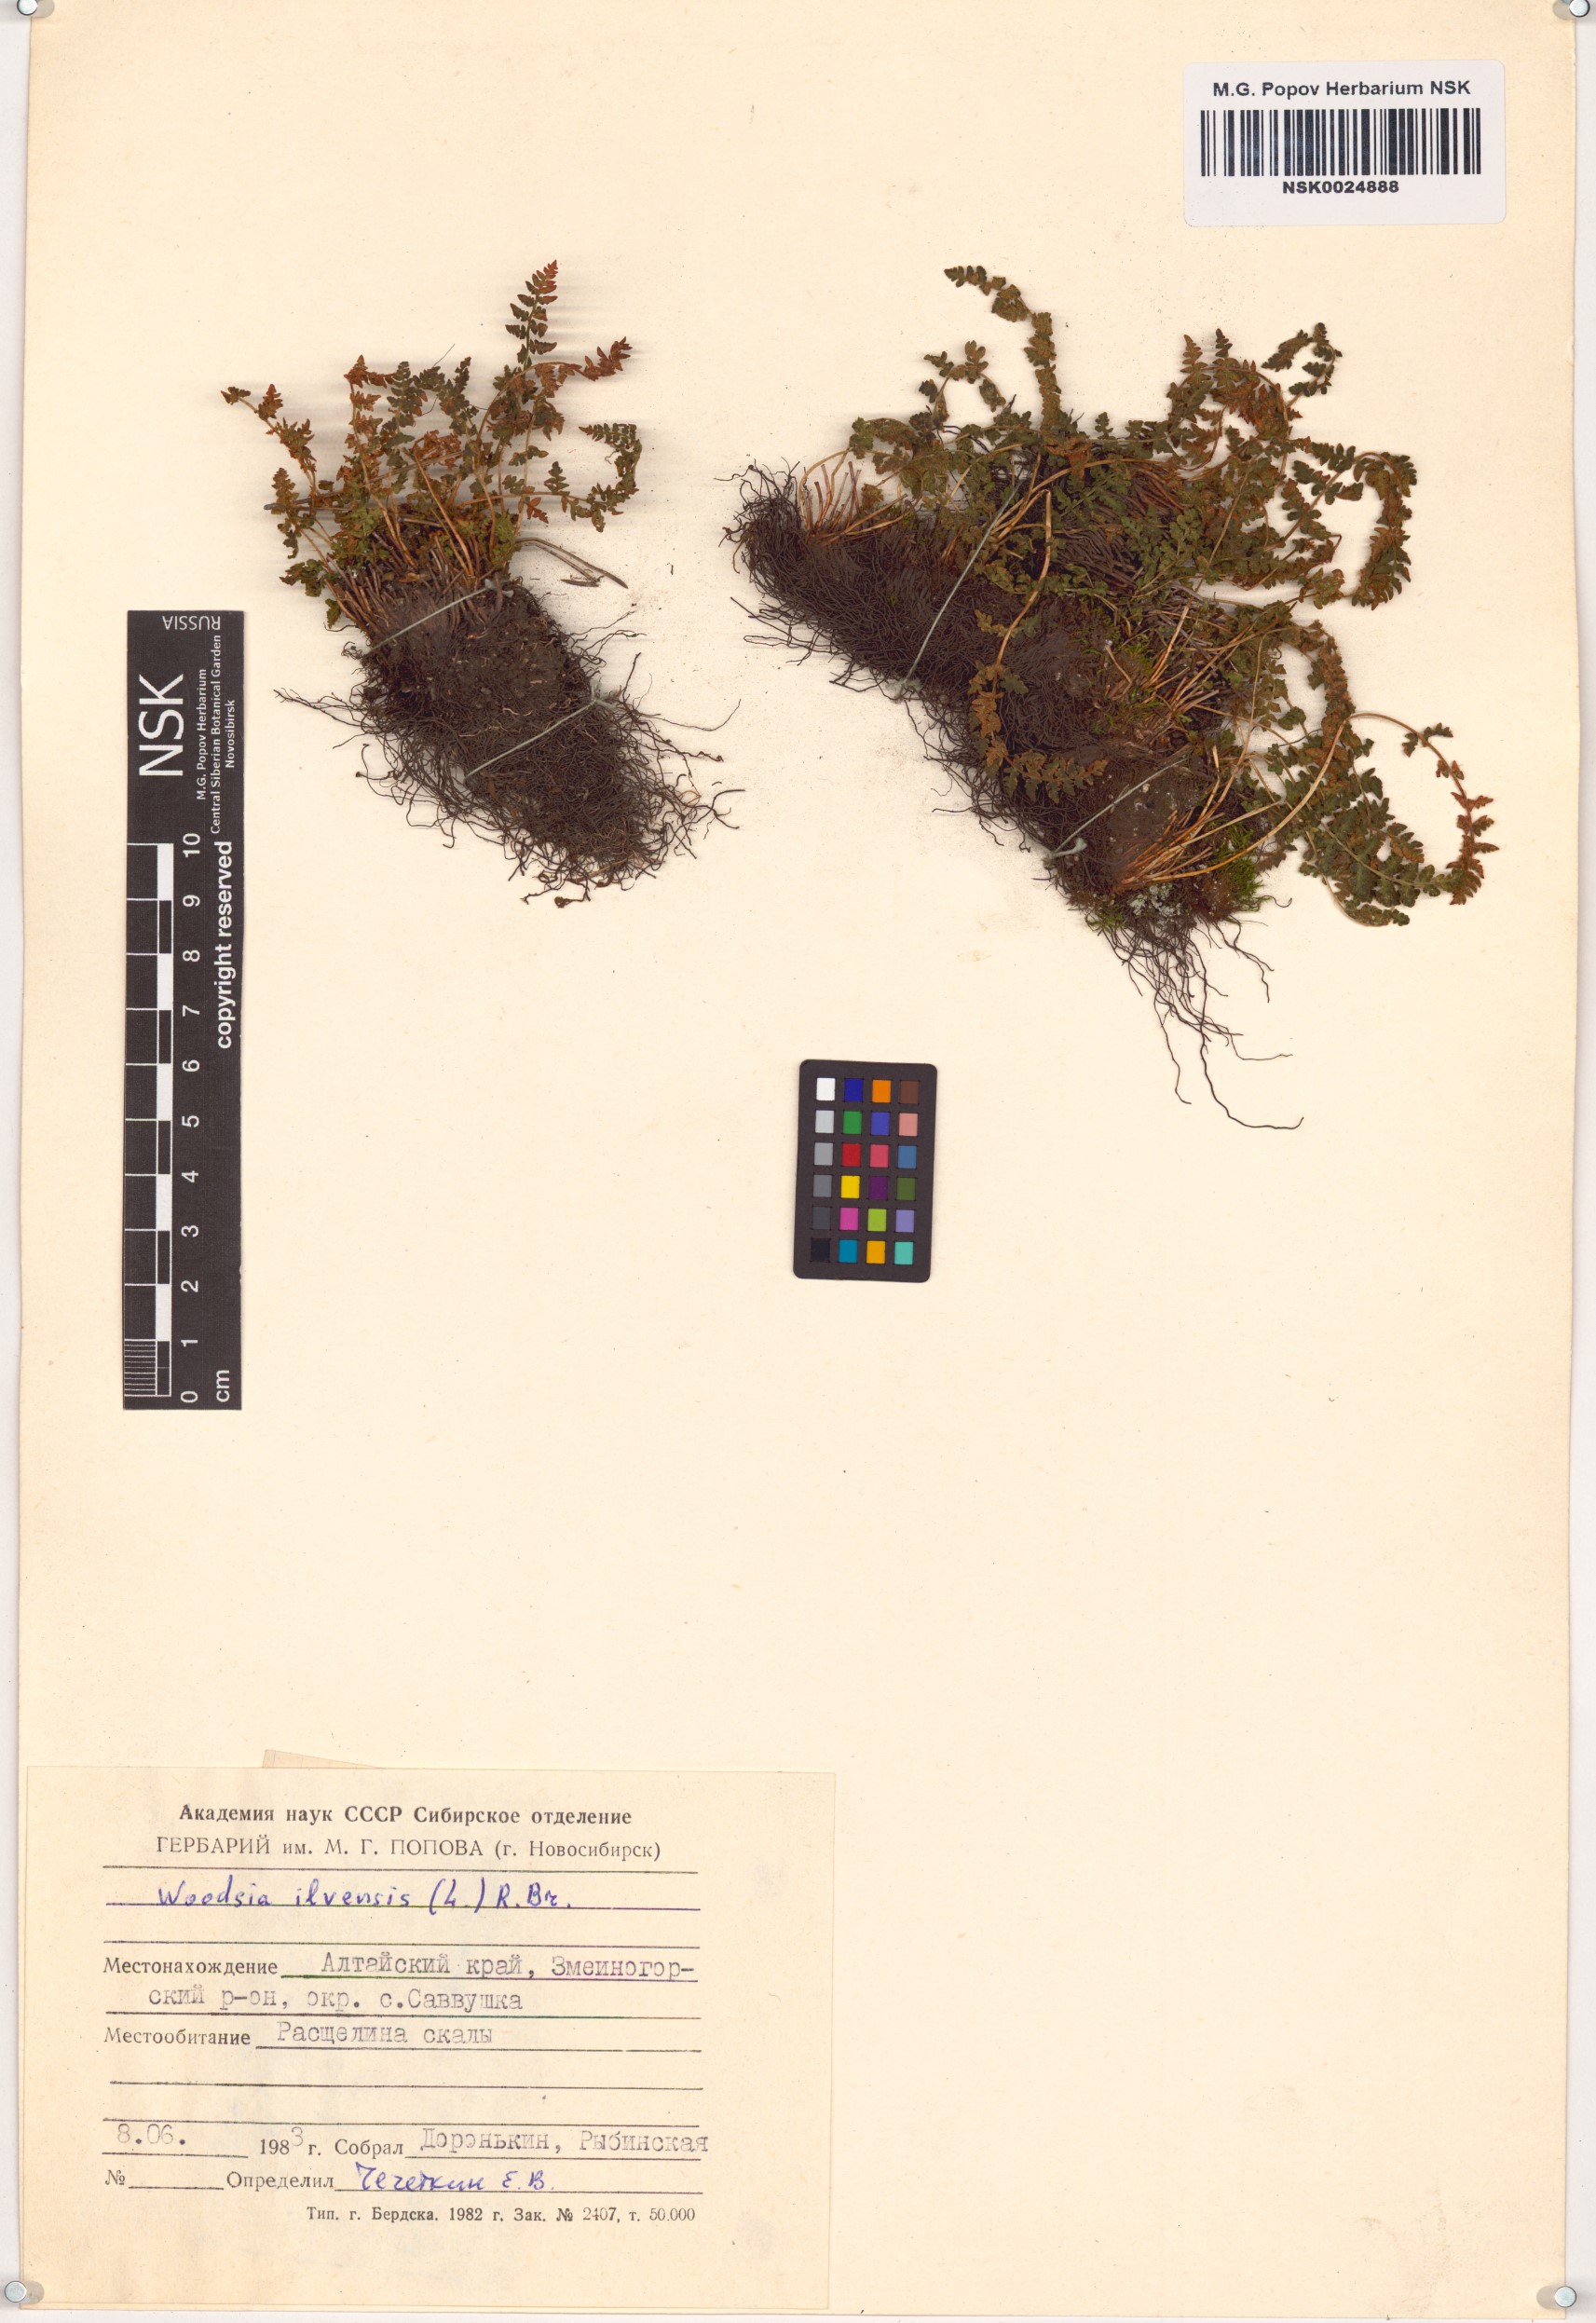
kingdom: Plantae
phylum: Tracheophyta
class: Polypodiopsida
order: Polypodiales
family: Woodsiaceae
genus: Woodsia
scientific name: Woodsia ilvensis
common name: Fragrant woodsia
